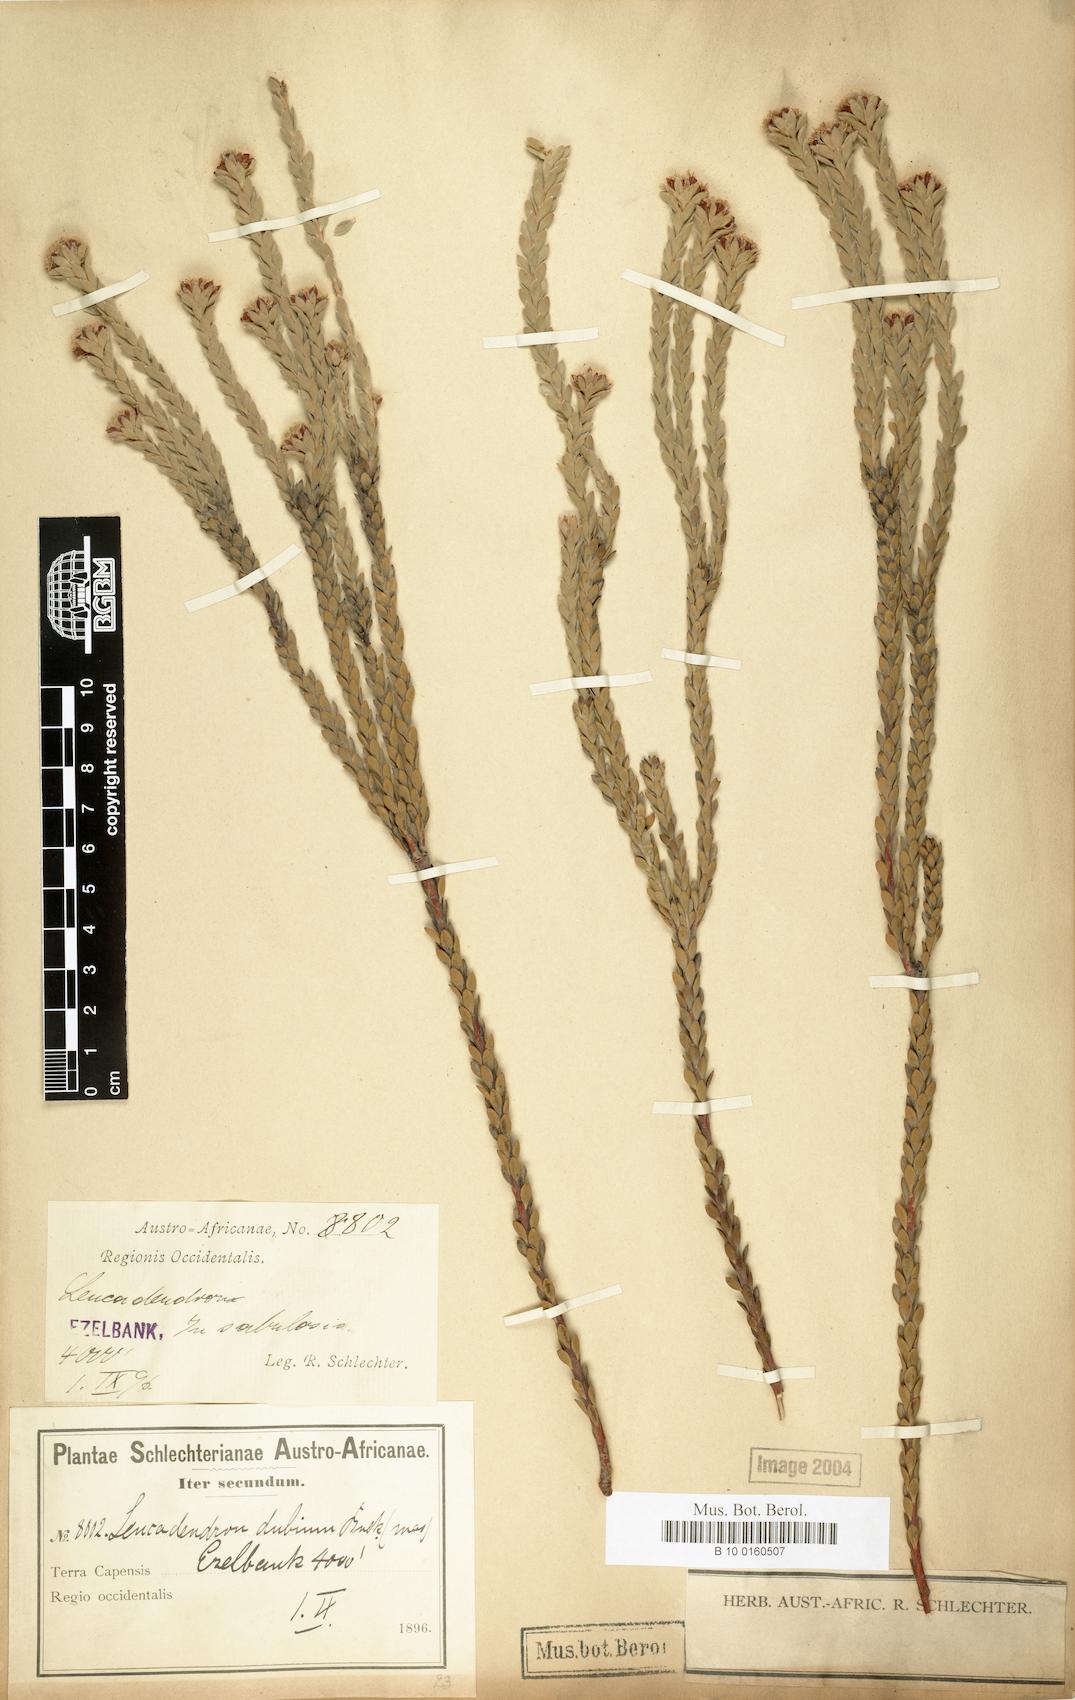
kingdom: Plantae
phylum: Tracheophyta
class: Magnoliopsida
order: Proteales
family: Proteaceae
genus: Leucadendron
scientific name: Leucadendron dubium
